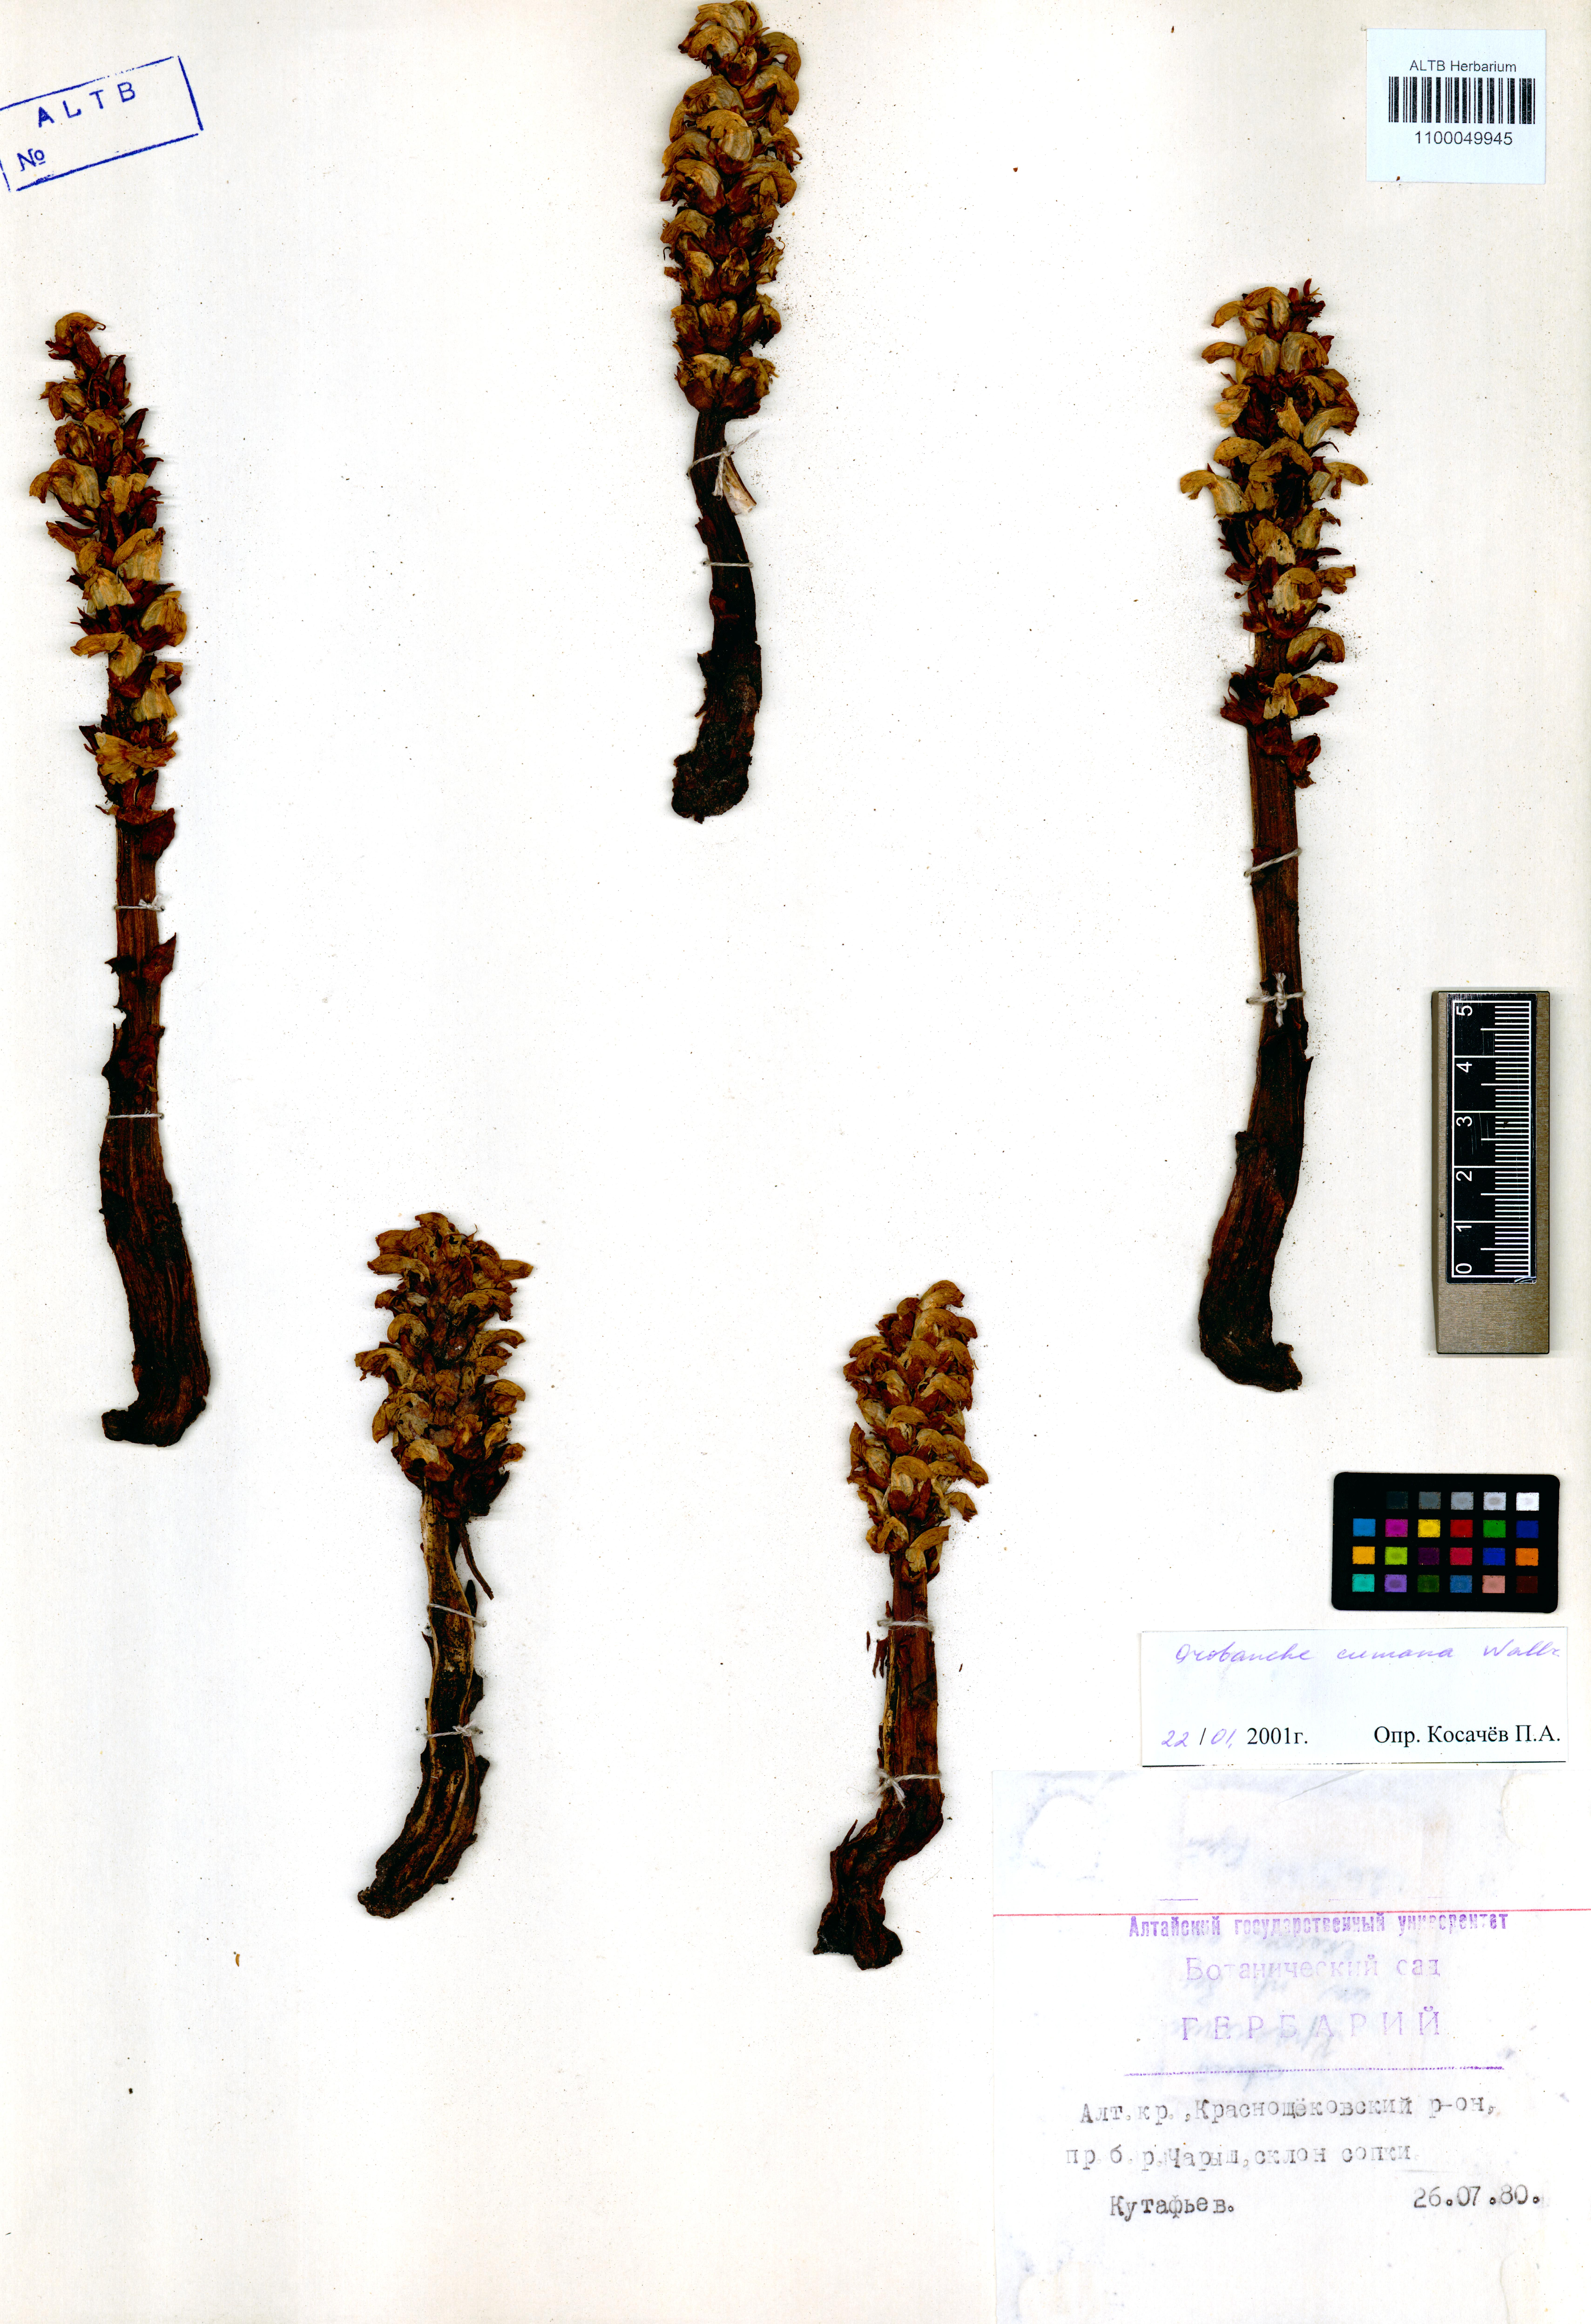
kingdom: Plantae
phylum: Tracheophyta
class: Magnoliopsida
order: Lamiales
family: Orobanchaceae
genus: Orobanche
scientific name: Orobanche cumana
